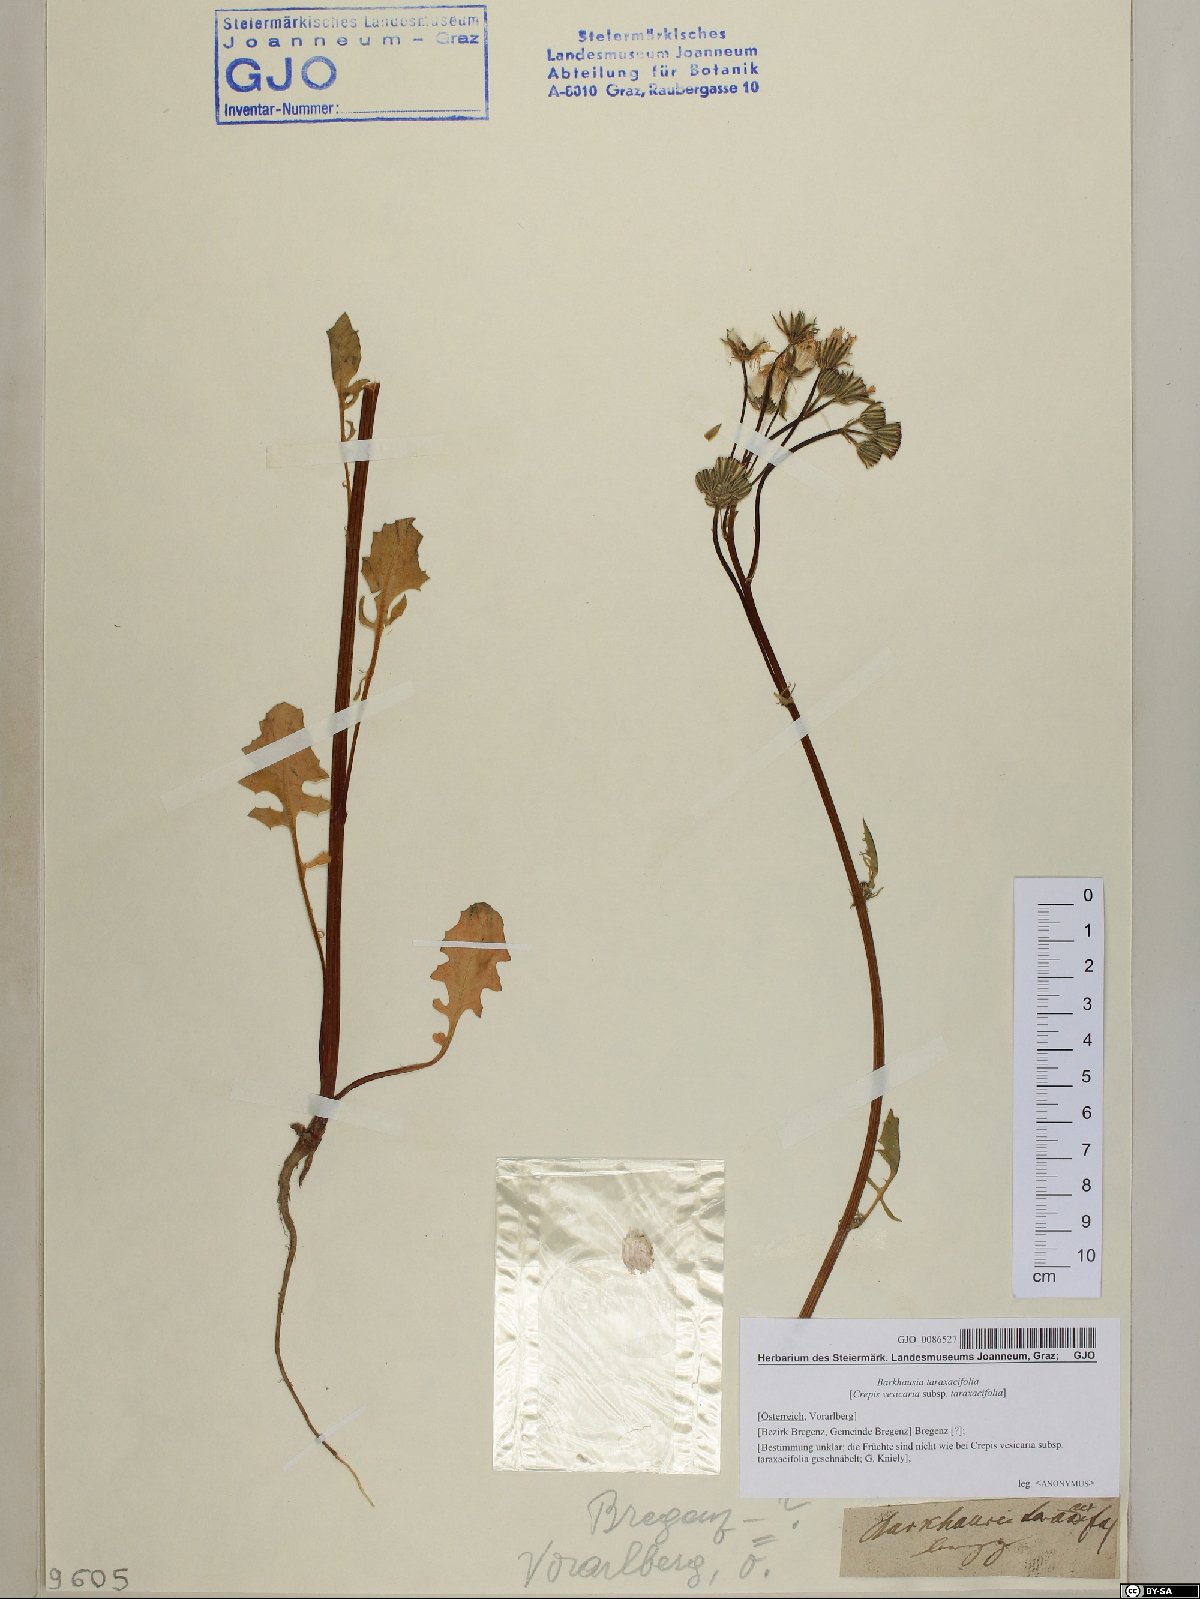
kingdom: Plantae
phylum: Tracheophyta
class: Magnoliopsida
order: Asterales
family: Asteraceae
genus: Crepis
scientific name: Crepis vesicaria
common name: Beaked hawksbeard
